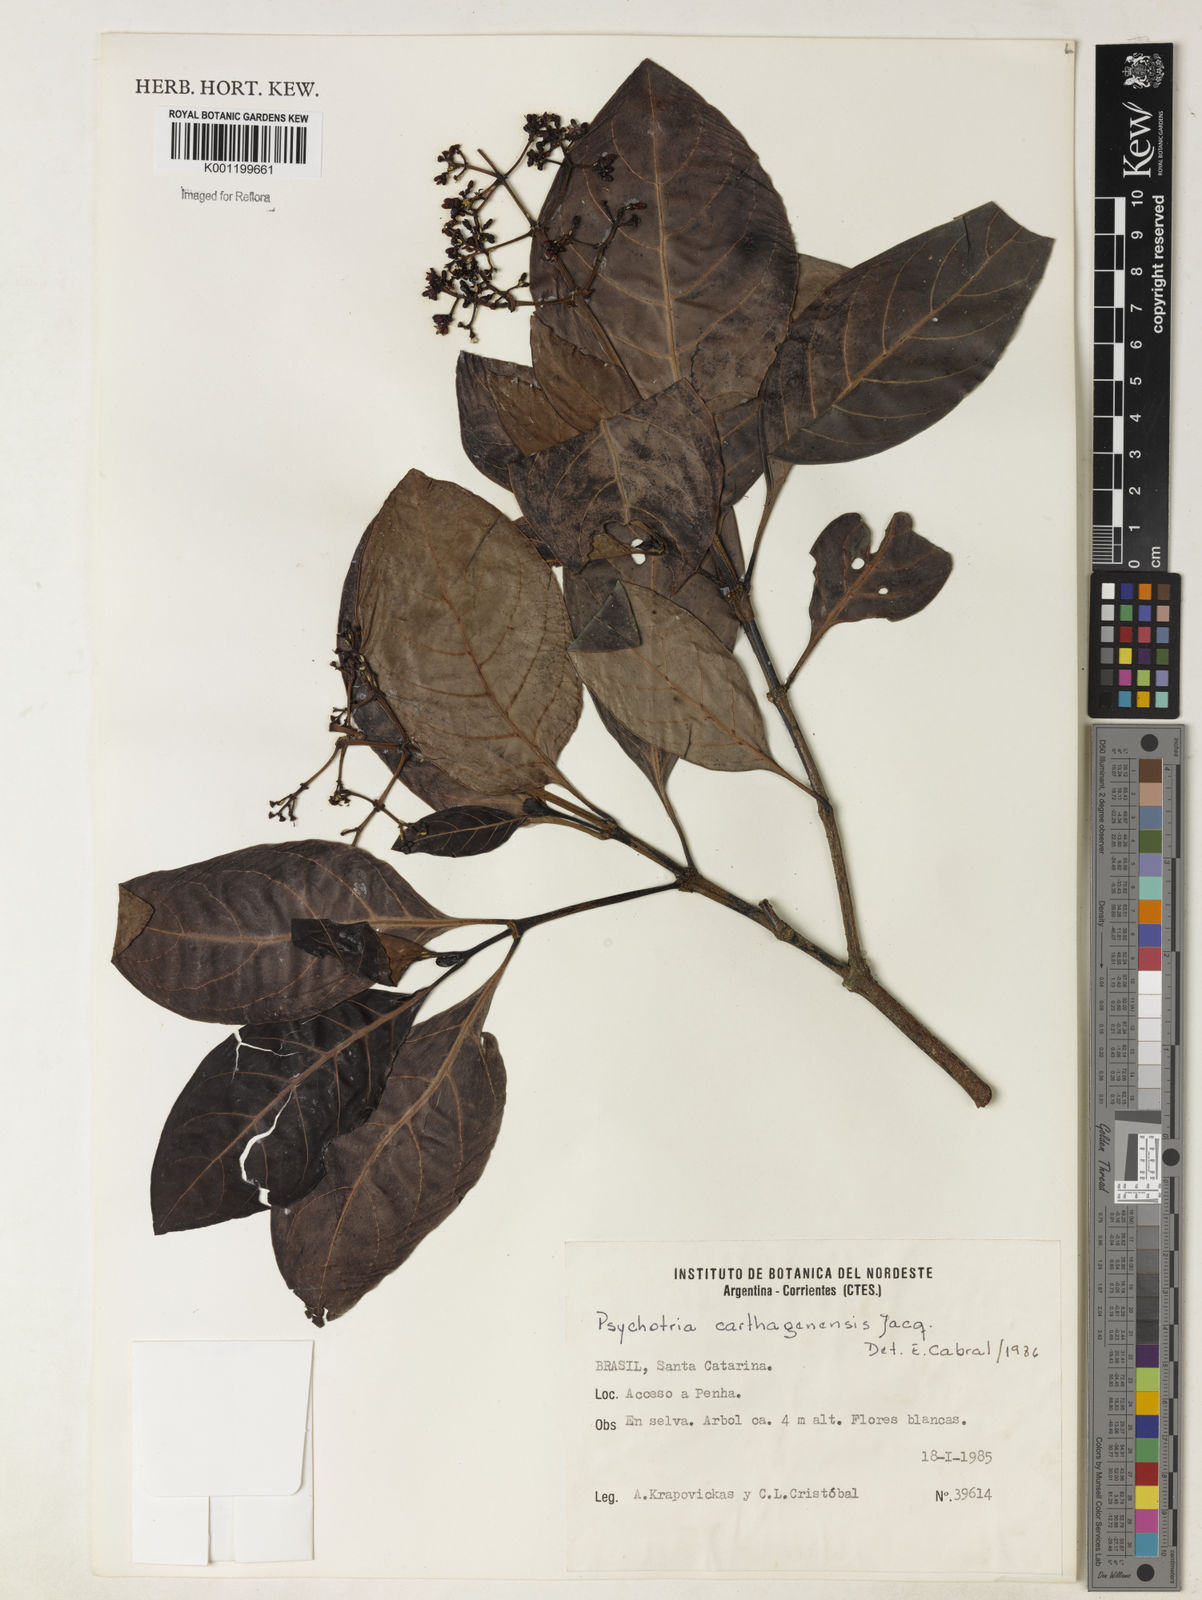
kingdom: Plantae
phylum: Tracheophyta
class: Magnoliopsida
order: Gentianales
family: Rubiaceae
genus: Psychotria
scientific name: Psychotria carthagenensis
